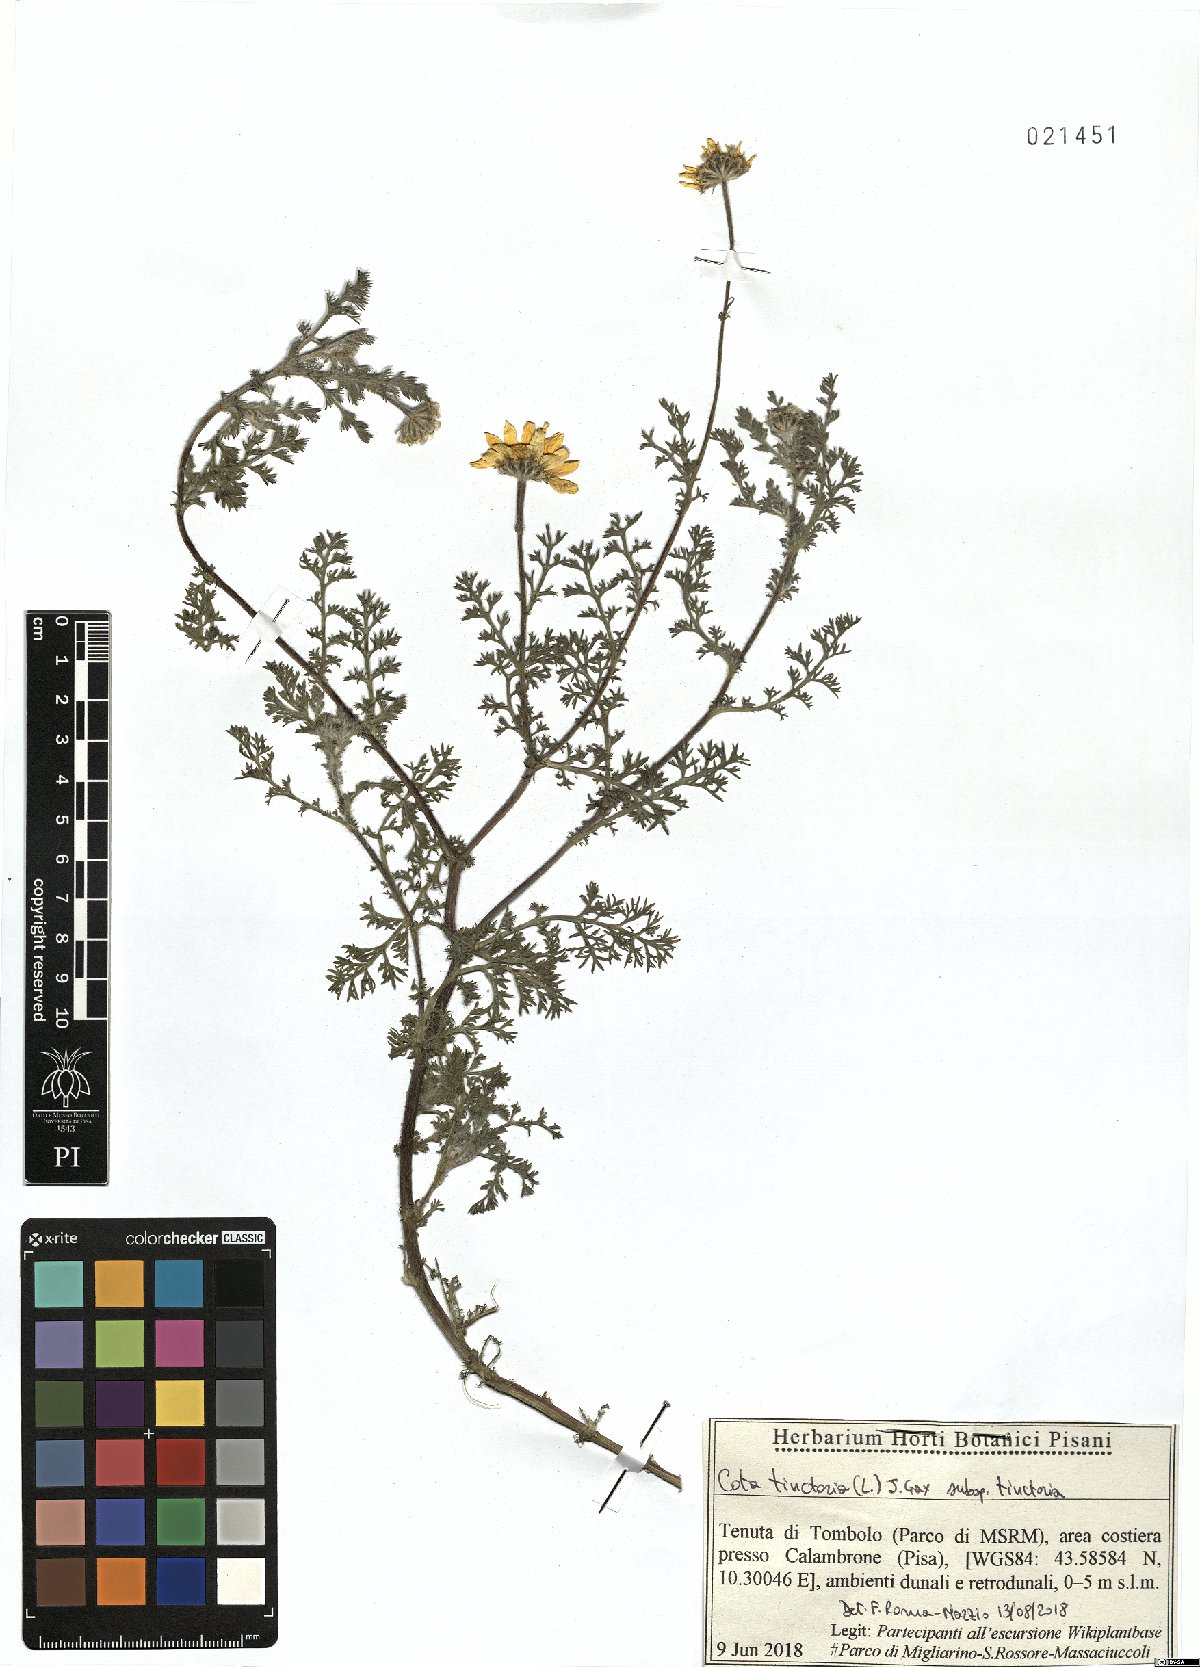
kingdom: Plantae
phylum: Tracheophyta
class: Magnoliopsida
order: Asterales
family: Asteraceae
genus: Cota
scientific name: Cota tinctoria
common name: Golden chamomile
